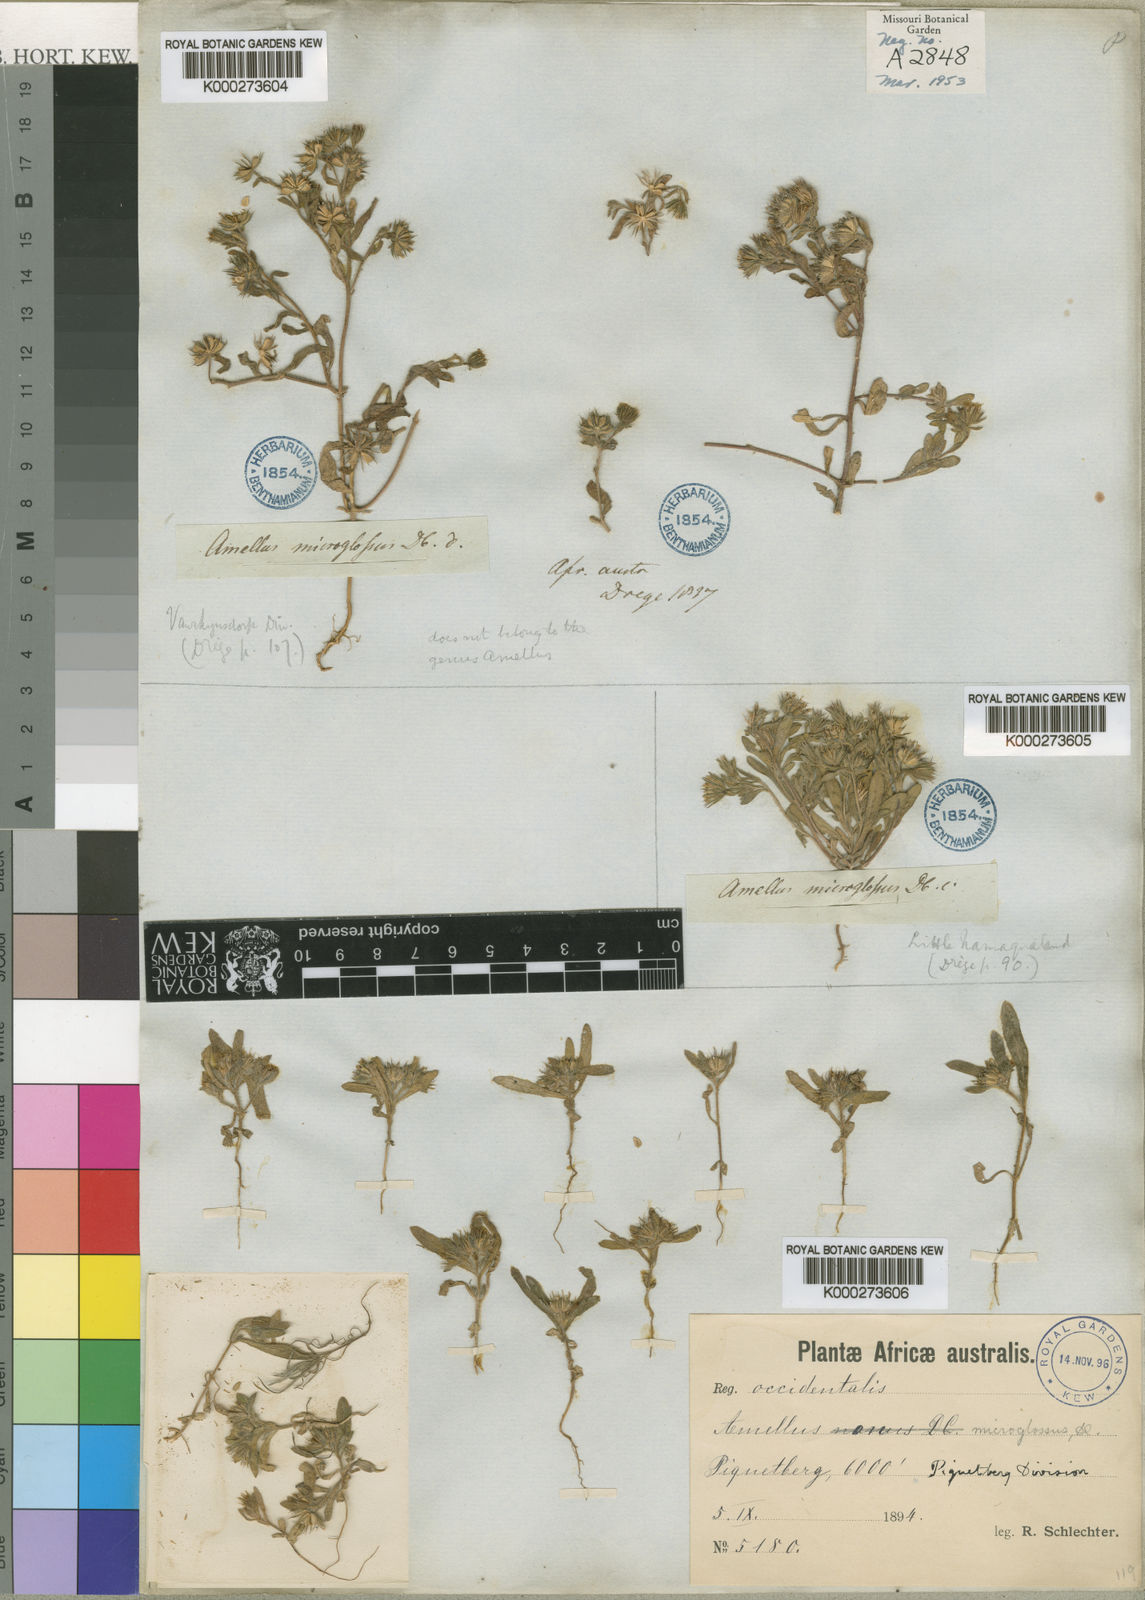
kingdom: Plantae
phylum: Tracheophyta
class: Magnoliopsida
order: Asterales
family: Asteraceae
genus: Amellus
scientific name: Amellus microglossus
